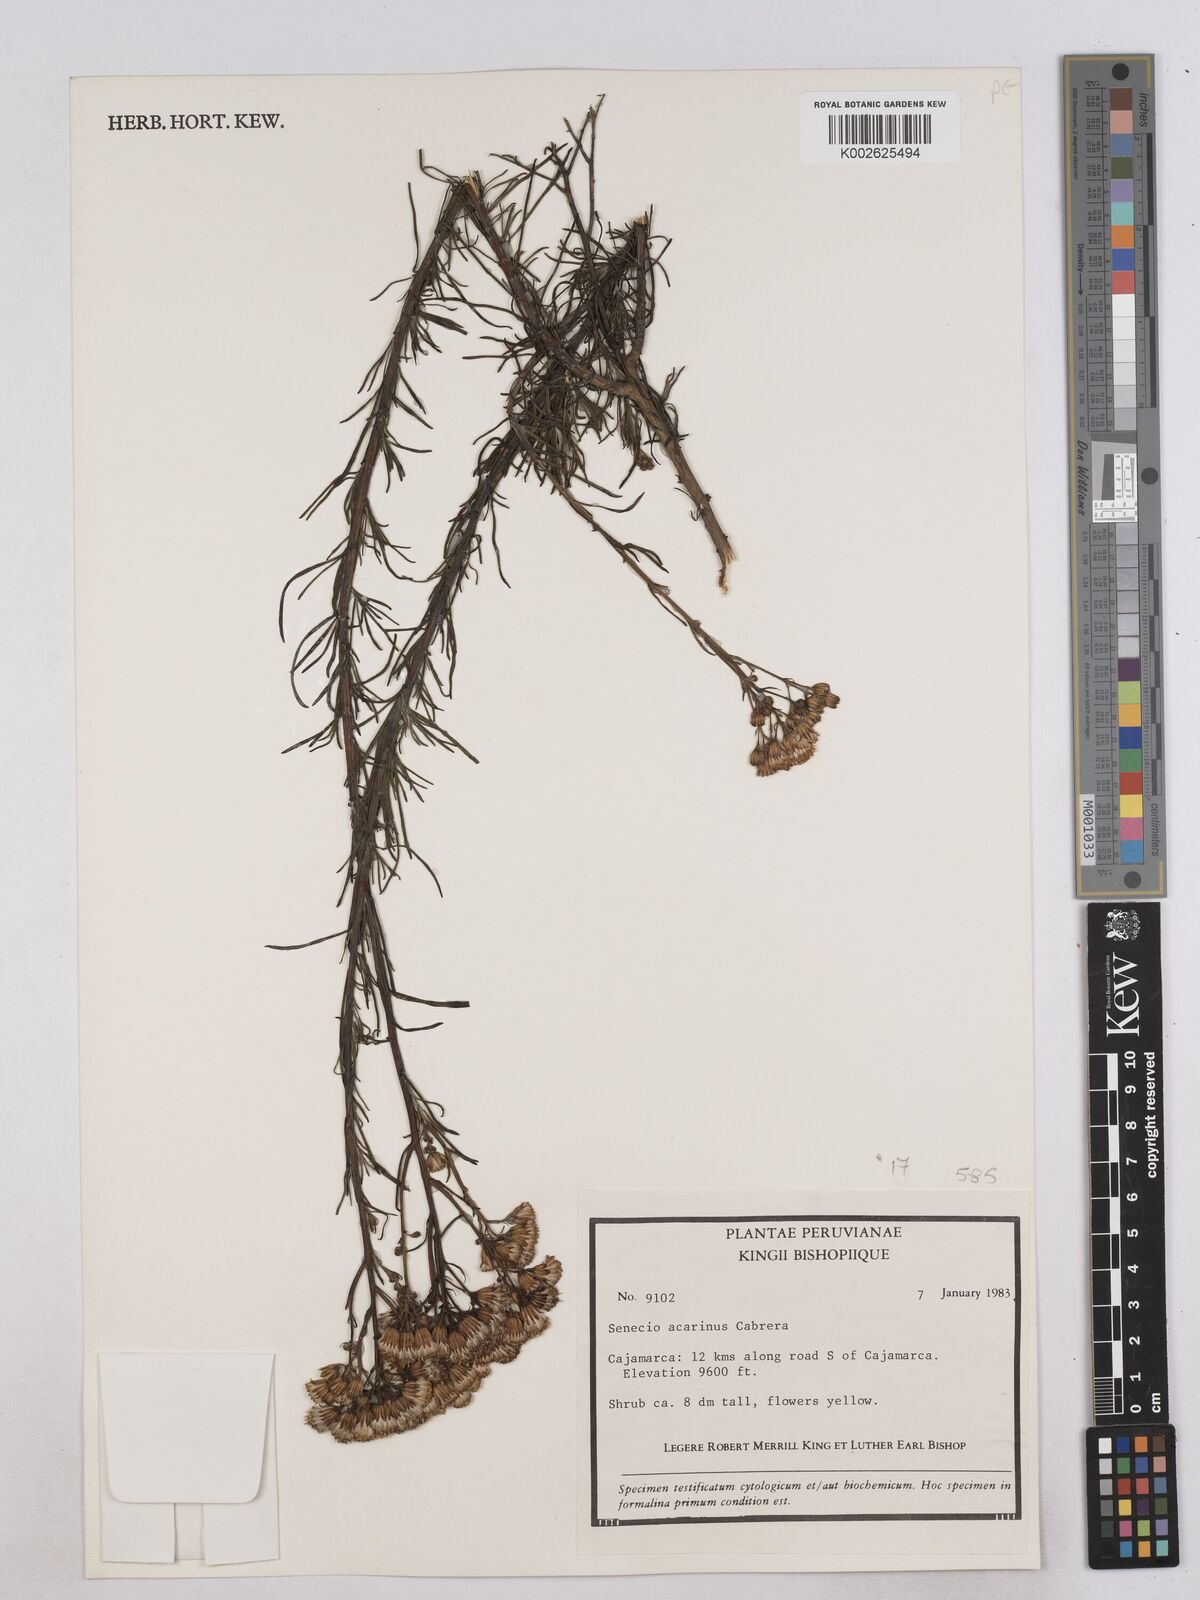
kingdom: Plantae
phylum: Tracheophyta
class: Magnoliopsida
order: Asterales
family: Asteraceae
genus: Senecio
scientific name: Senecio acarinus
